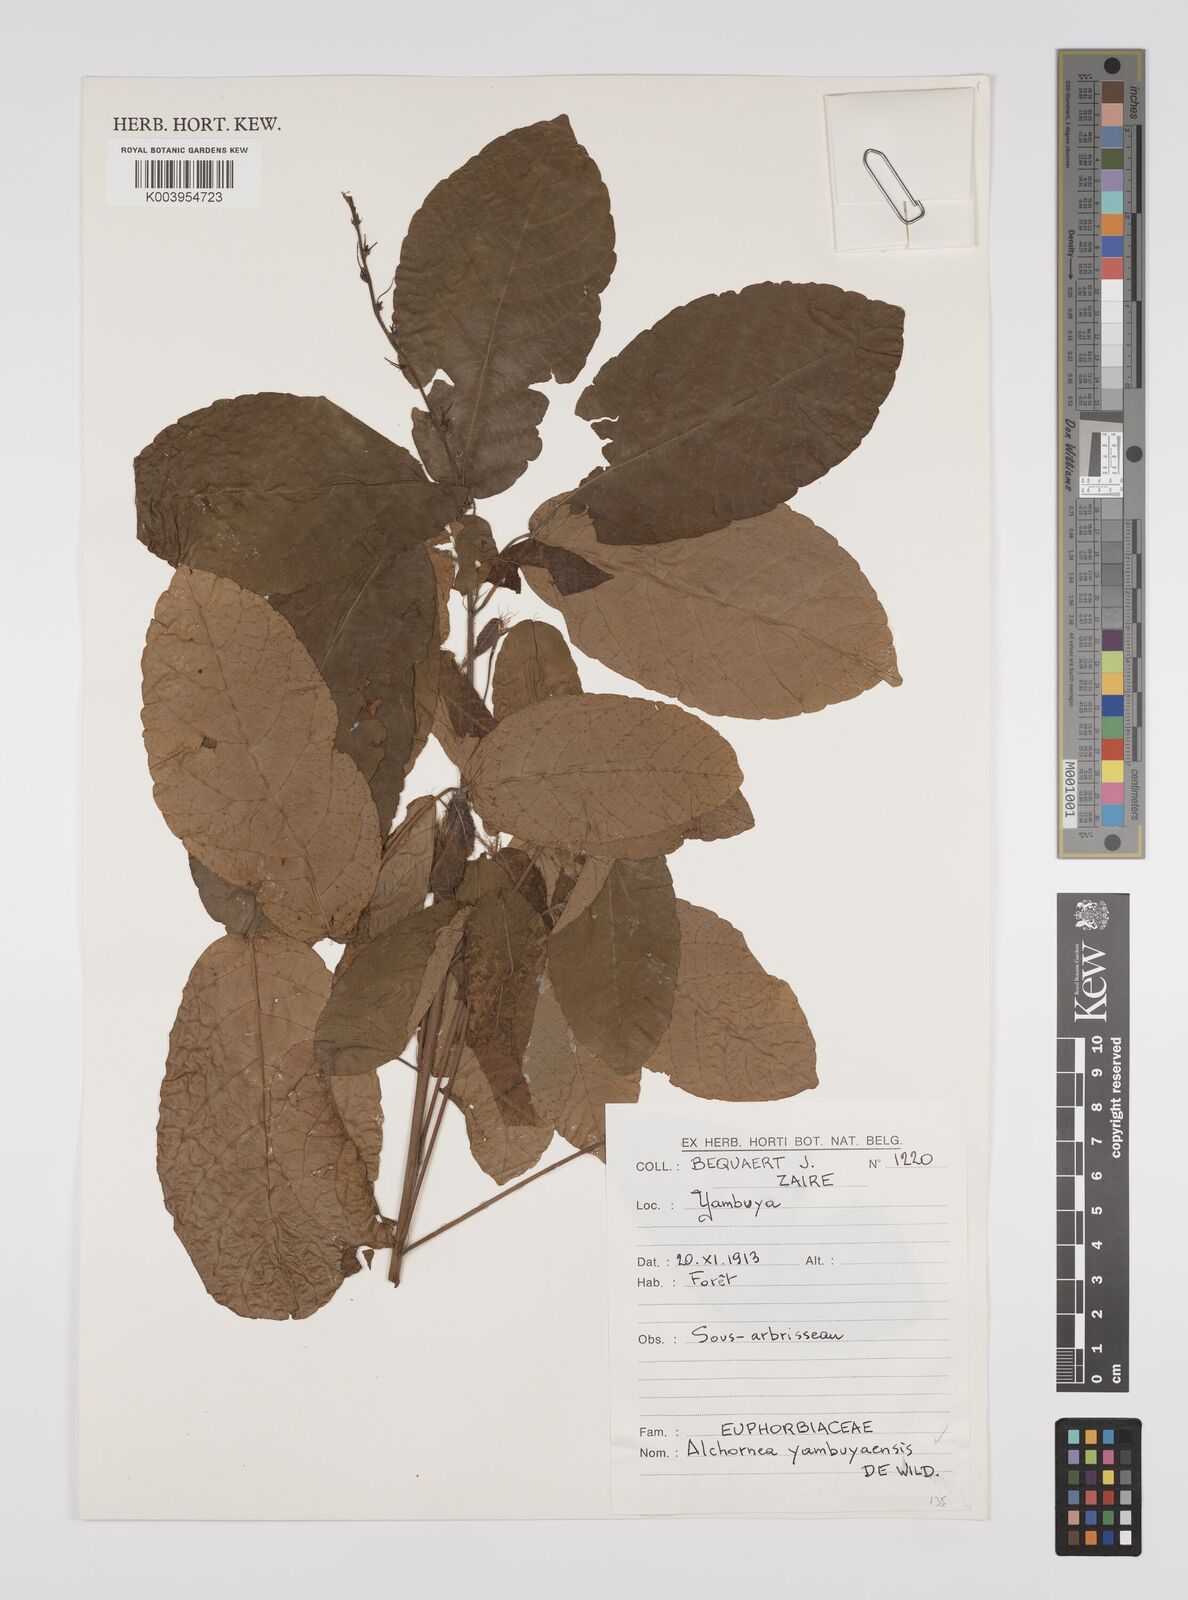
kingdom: Plantae
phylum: Tracheophyta
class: Magnoliopsida
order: Malpighiales
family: Euphorbiaceae
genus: Alchornea
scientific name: Alchornea yambuyaensis
